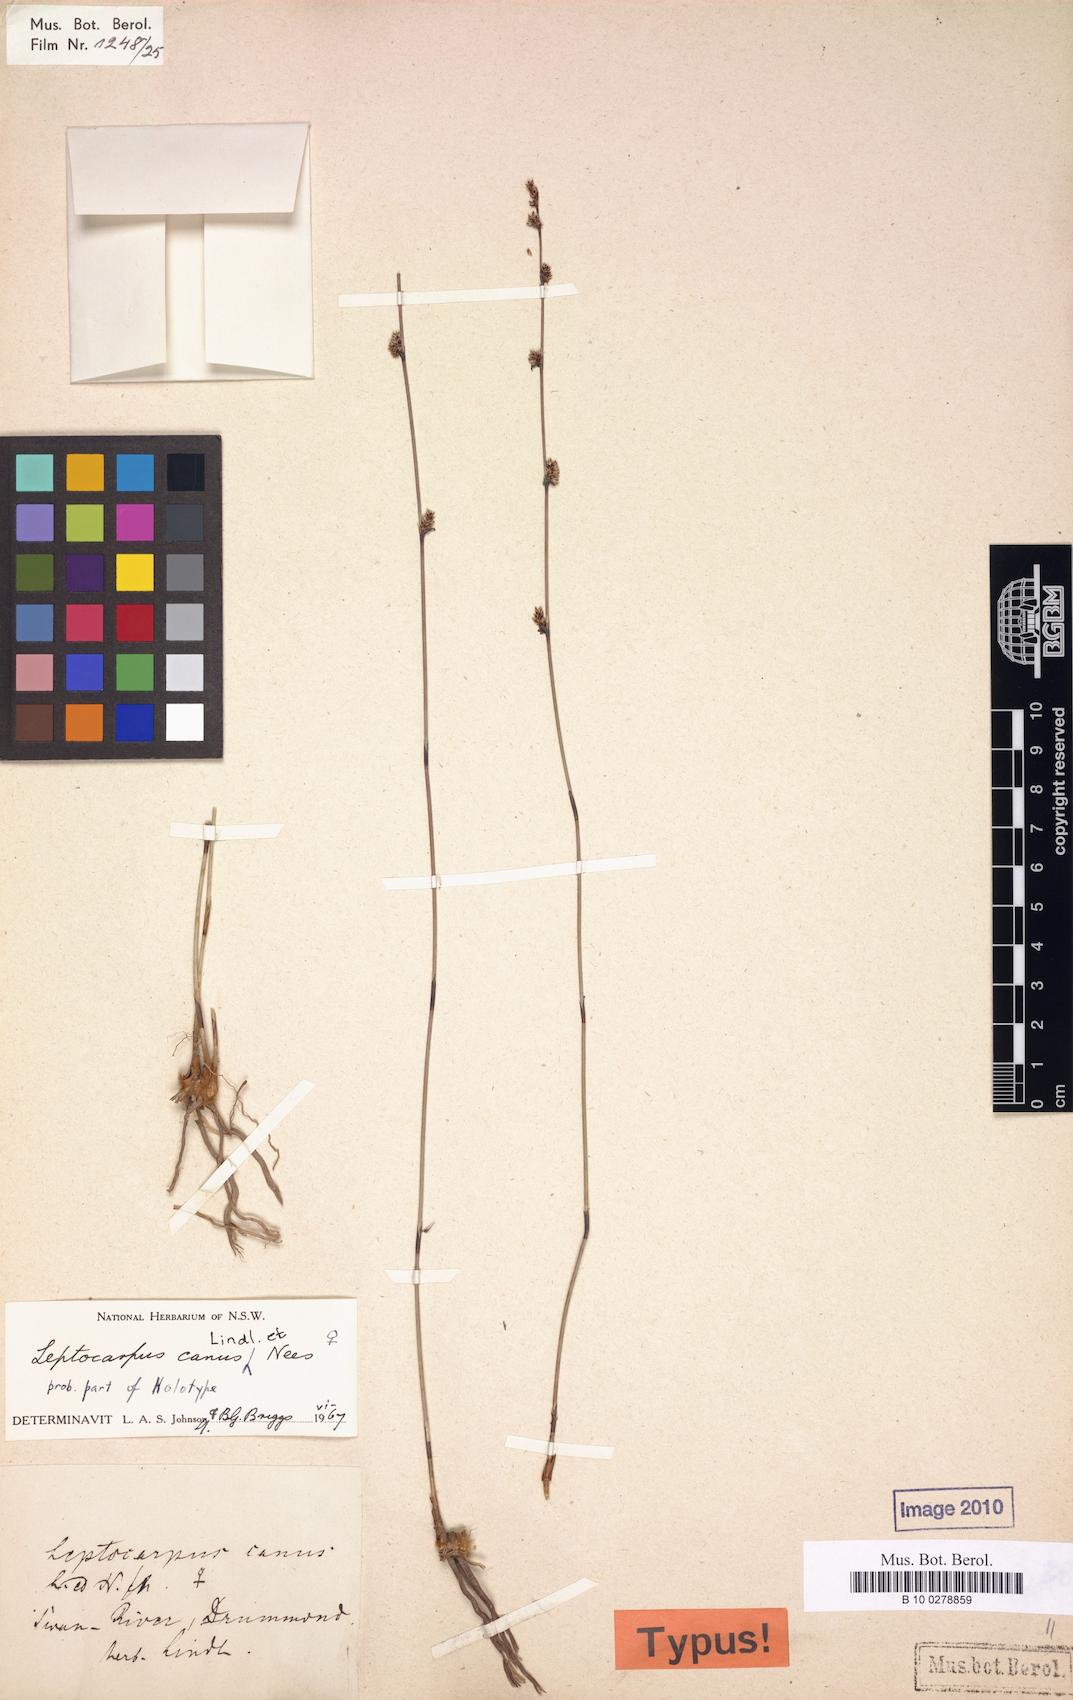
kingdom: Plantae
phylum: Tracheophyta
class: Liliopsida
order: Poales
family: Restionaceae
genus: Leptocarpus
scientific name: Leptocarpus canus
